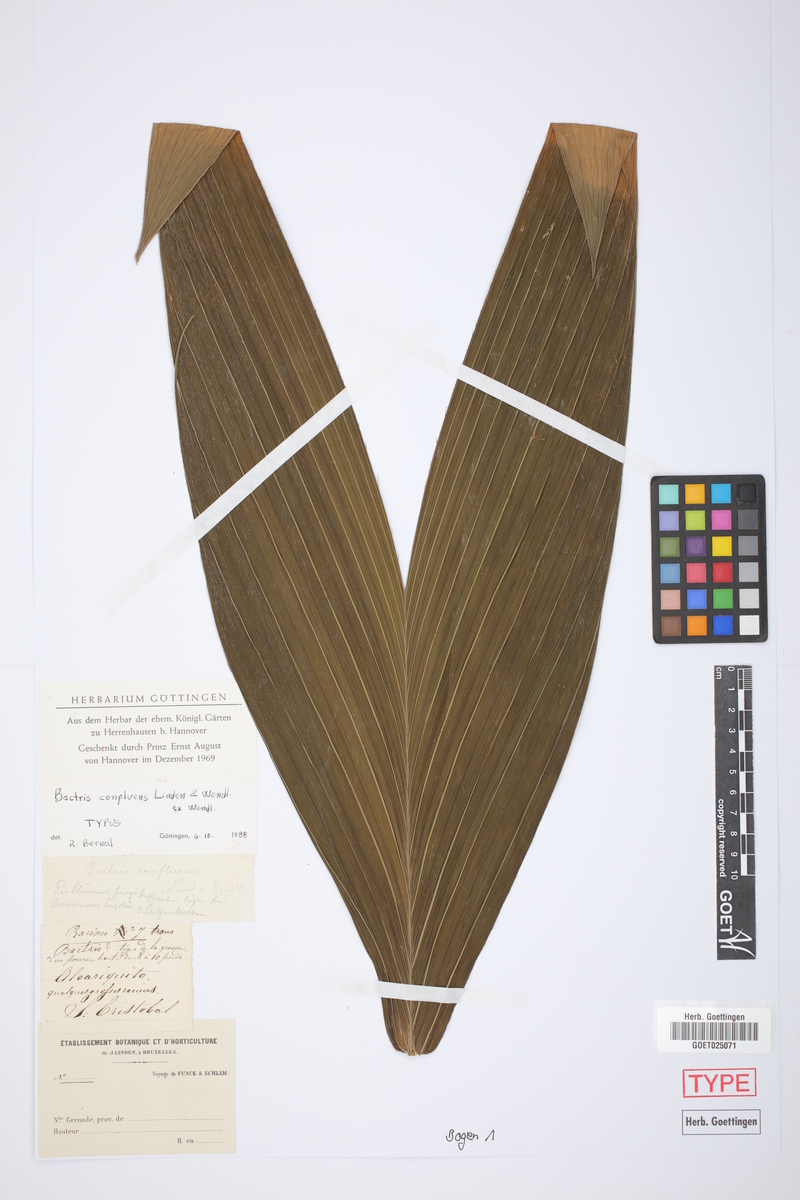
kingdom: Plantae
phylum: Tracheophyta
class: Liliopsida
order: Arecales
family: Arecaceae
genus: Bactris
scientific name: Bactris confluens
